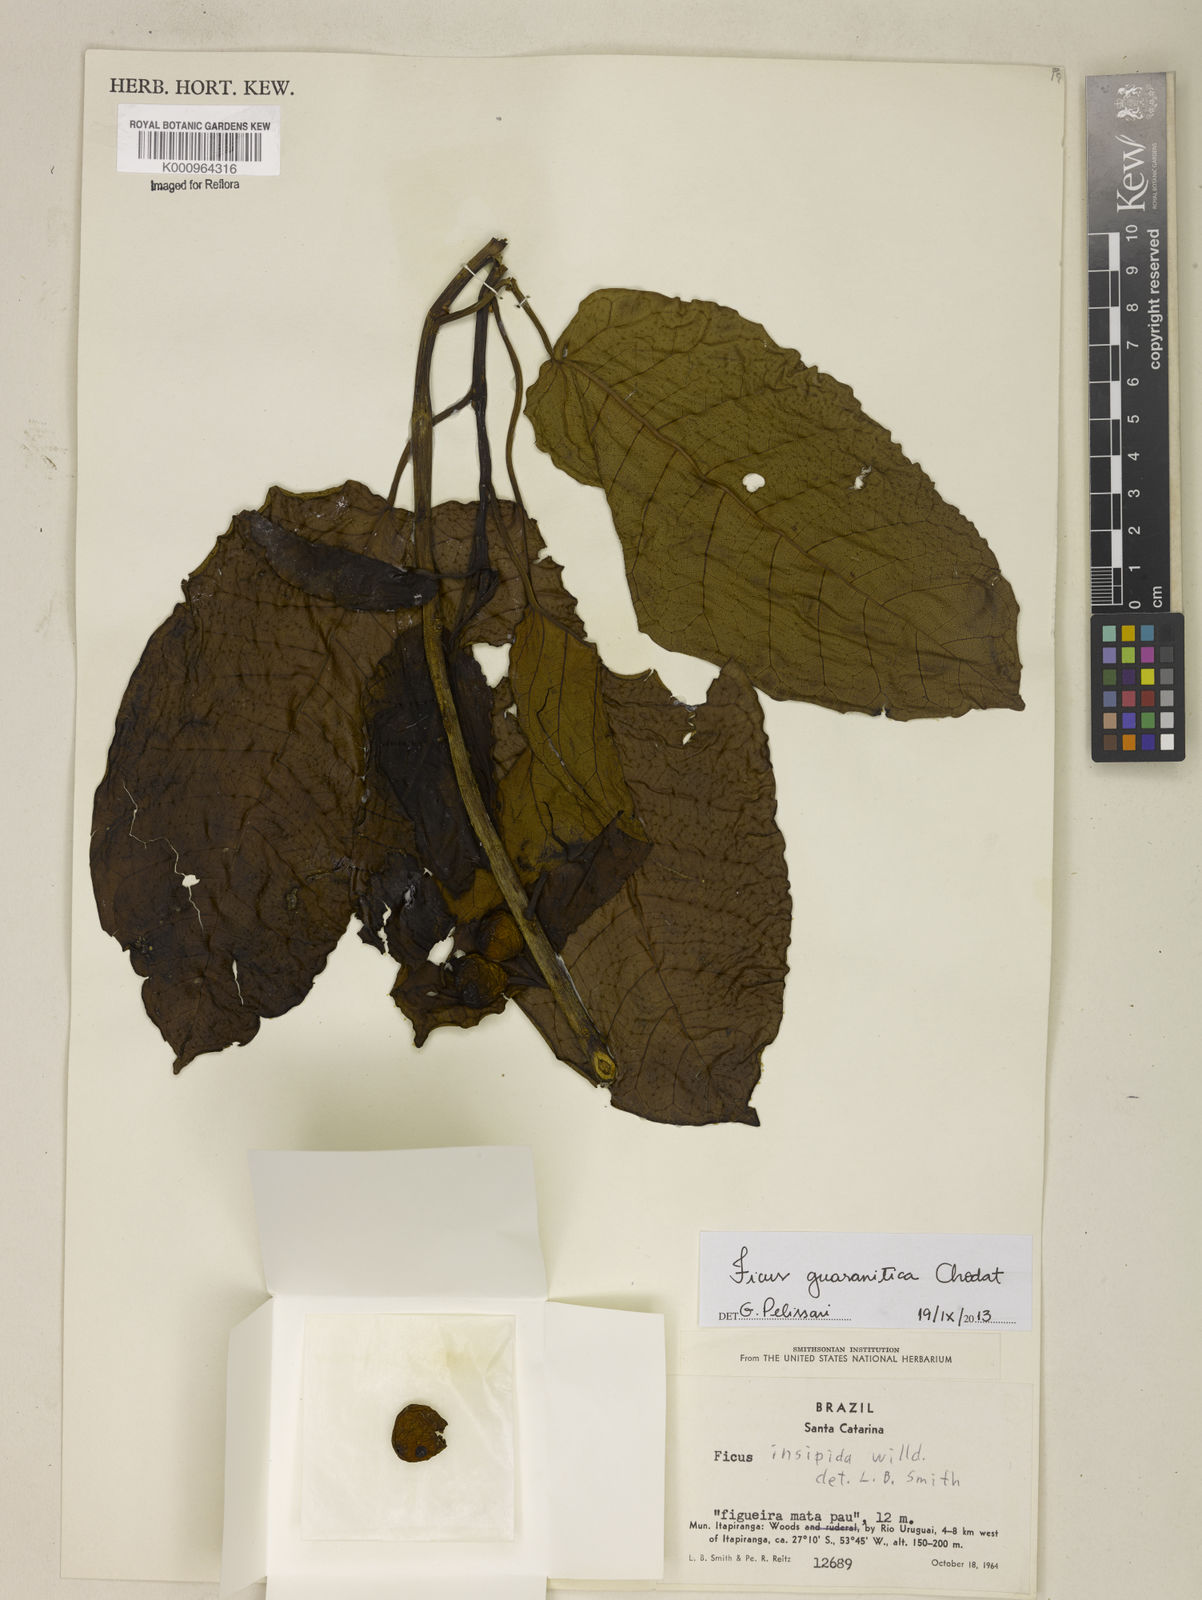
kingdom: Plantae
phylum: Tracheophyta
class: Magnoliopsida
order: Rosales
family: Moraceae
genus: Ficus
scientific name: Ficus guaranitica
